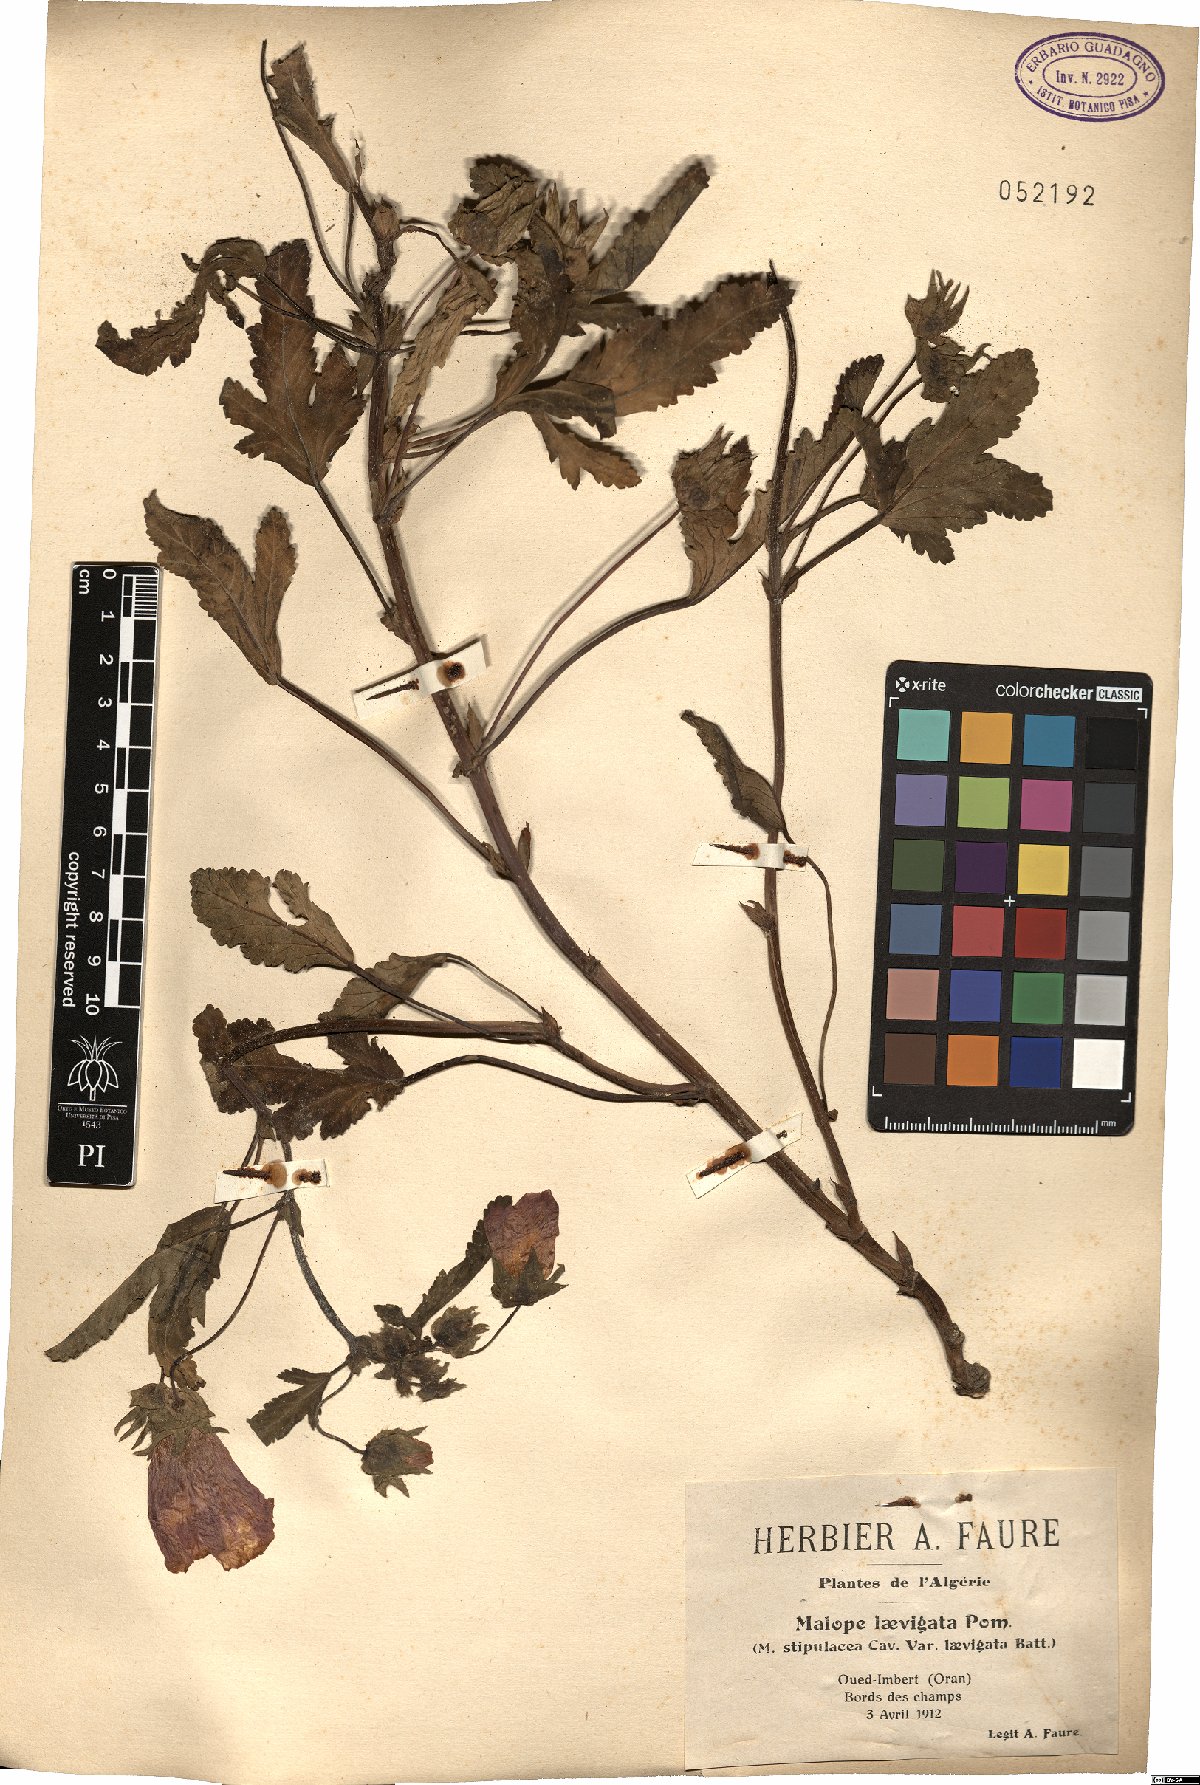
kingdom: Plantae
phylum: Tracheophyta
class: Magnoliopsida
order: Malvales
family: Malvaceae
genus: Malope
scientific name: Malope malacoides
